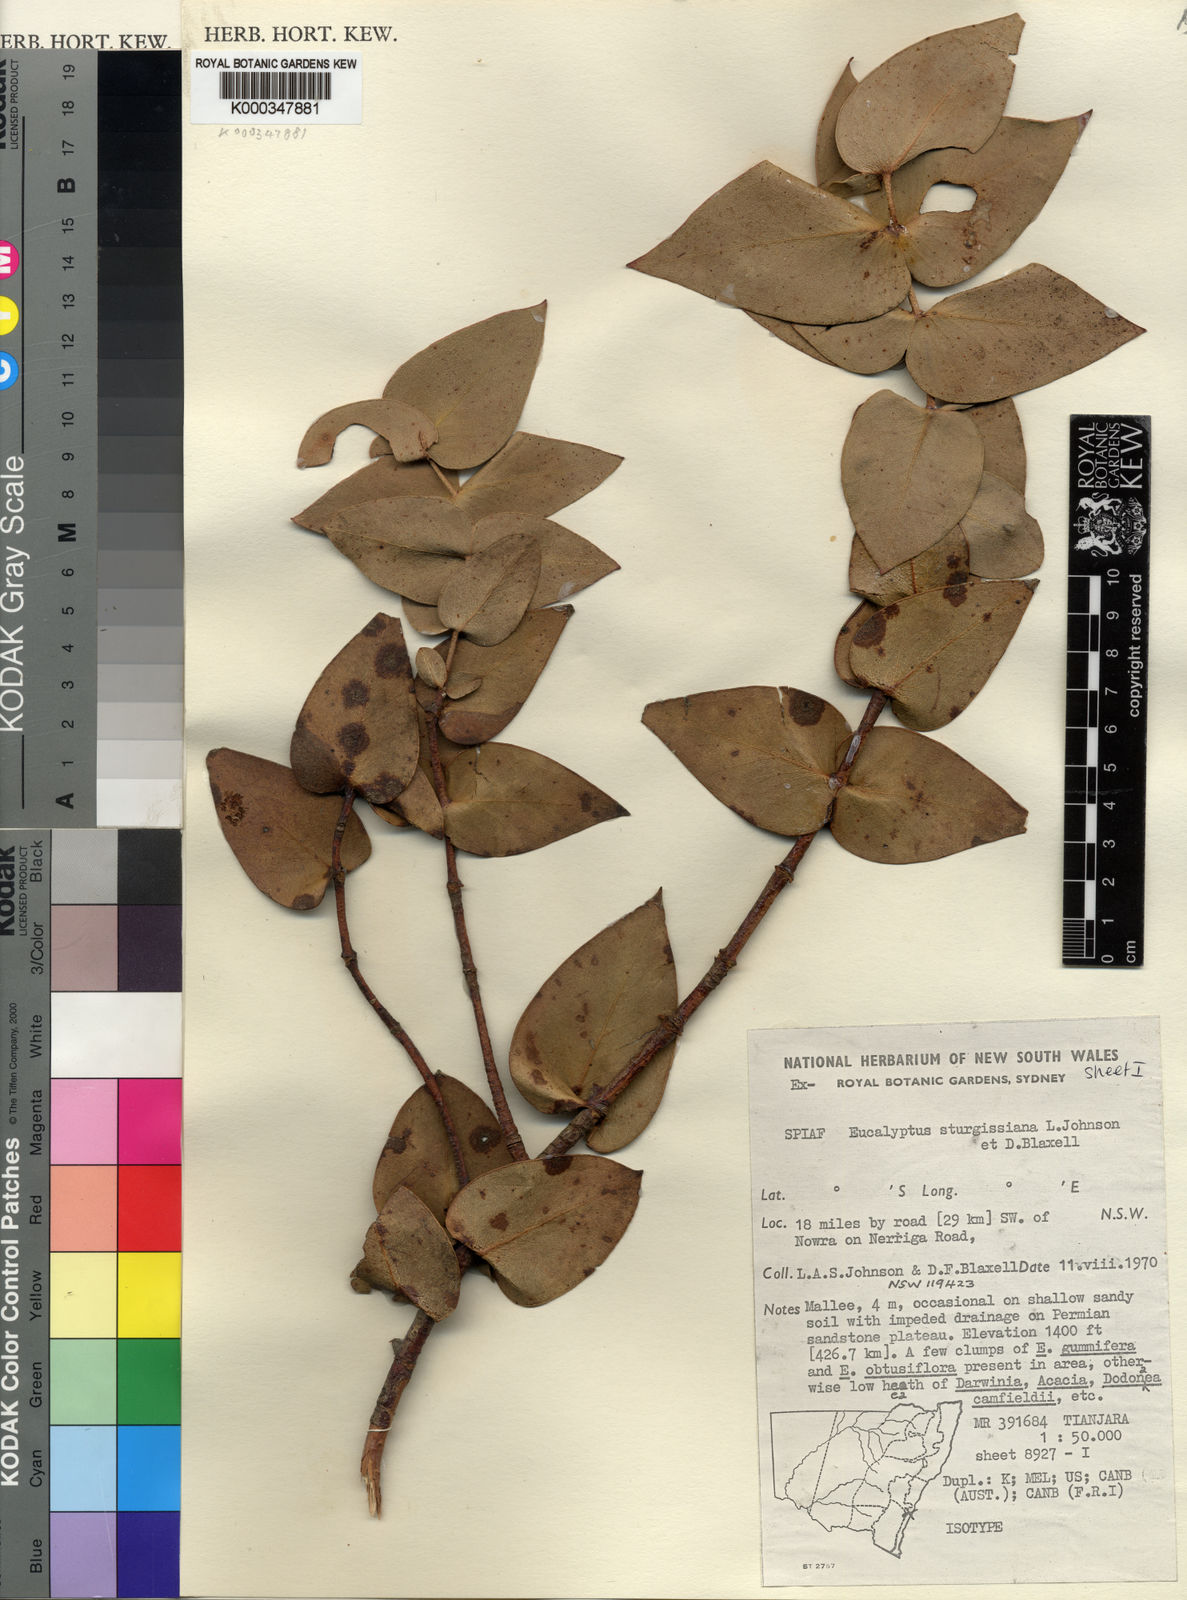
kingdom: Plantae
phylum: Tracheophyta
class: Magnoliopsida
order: Myrtales
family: Myrtaceae
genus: Eucalyptus
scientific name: Eucalyptus sturgissiana
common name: Ettrema mallee
